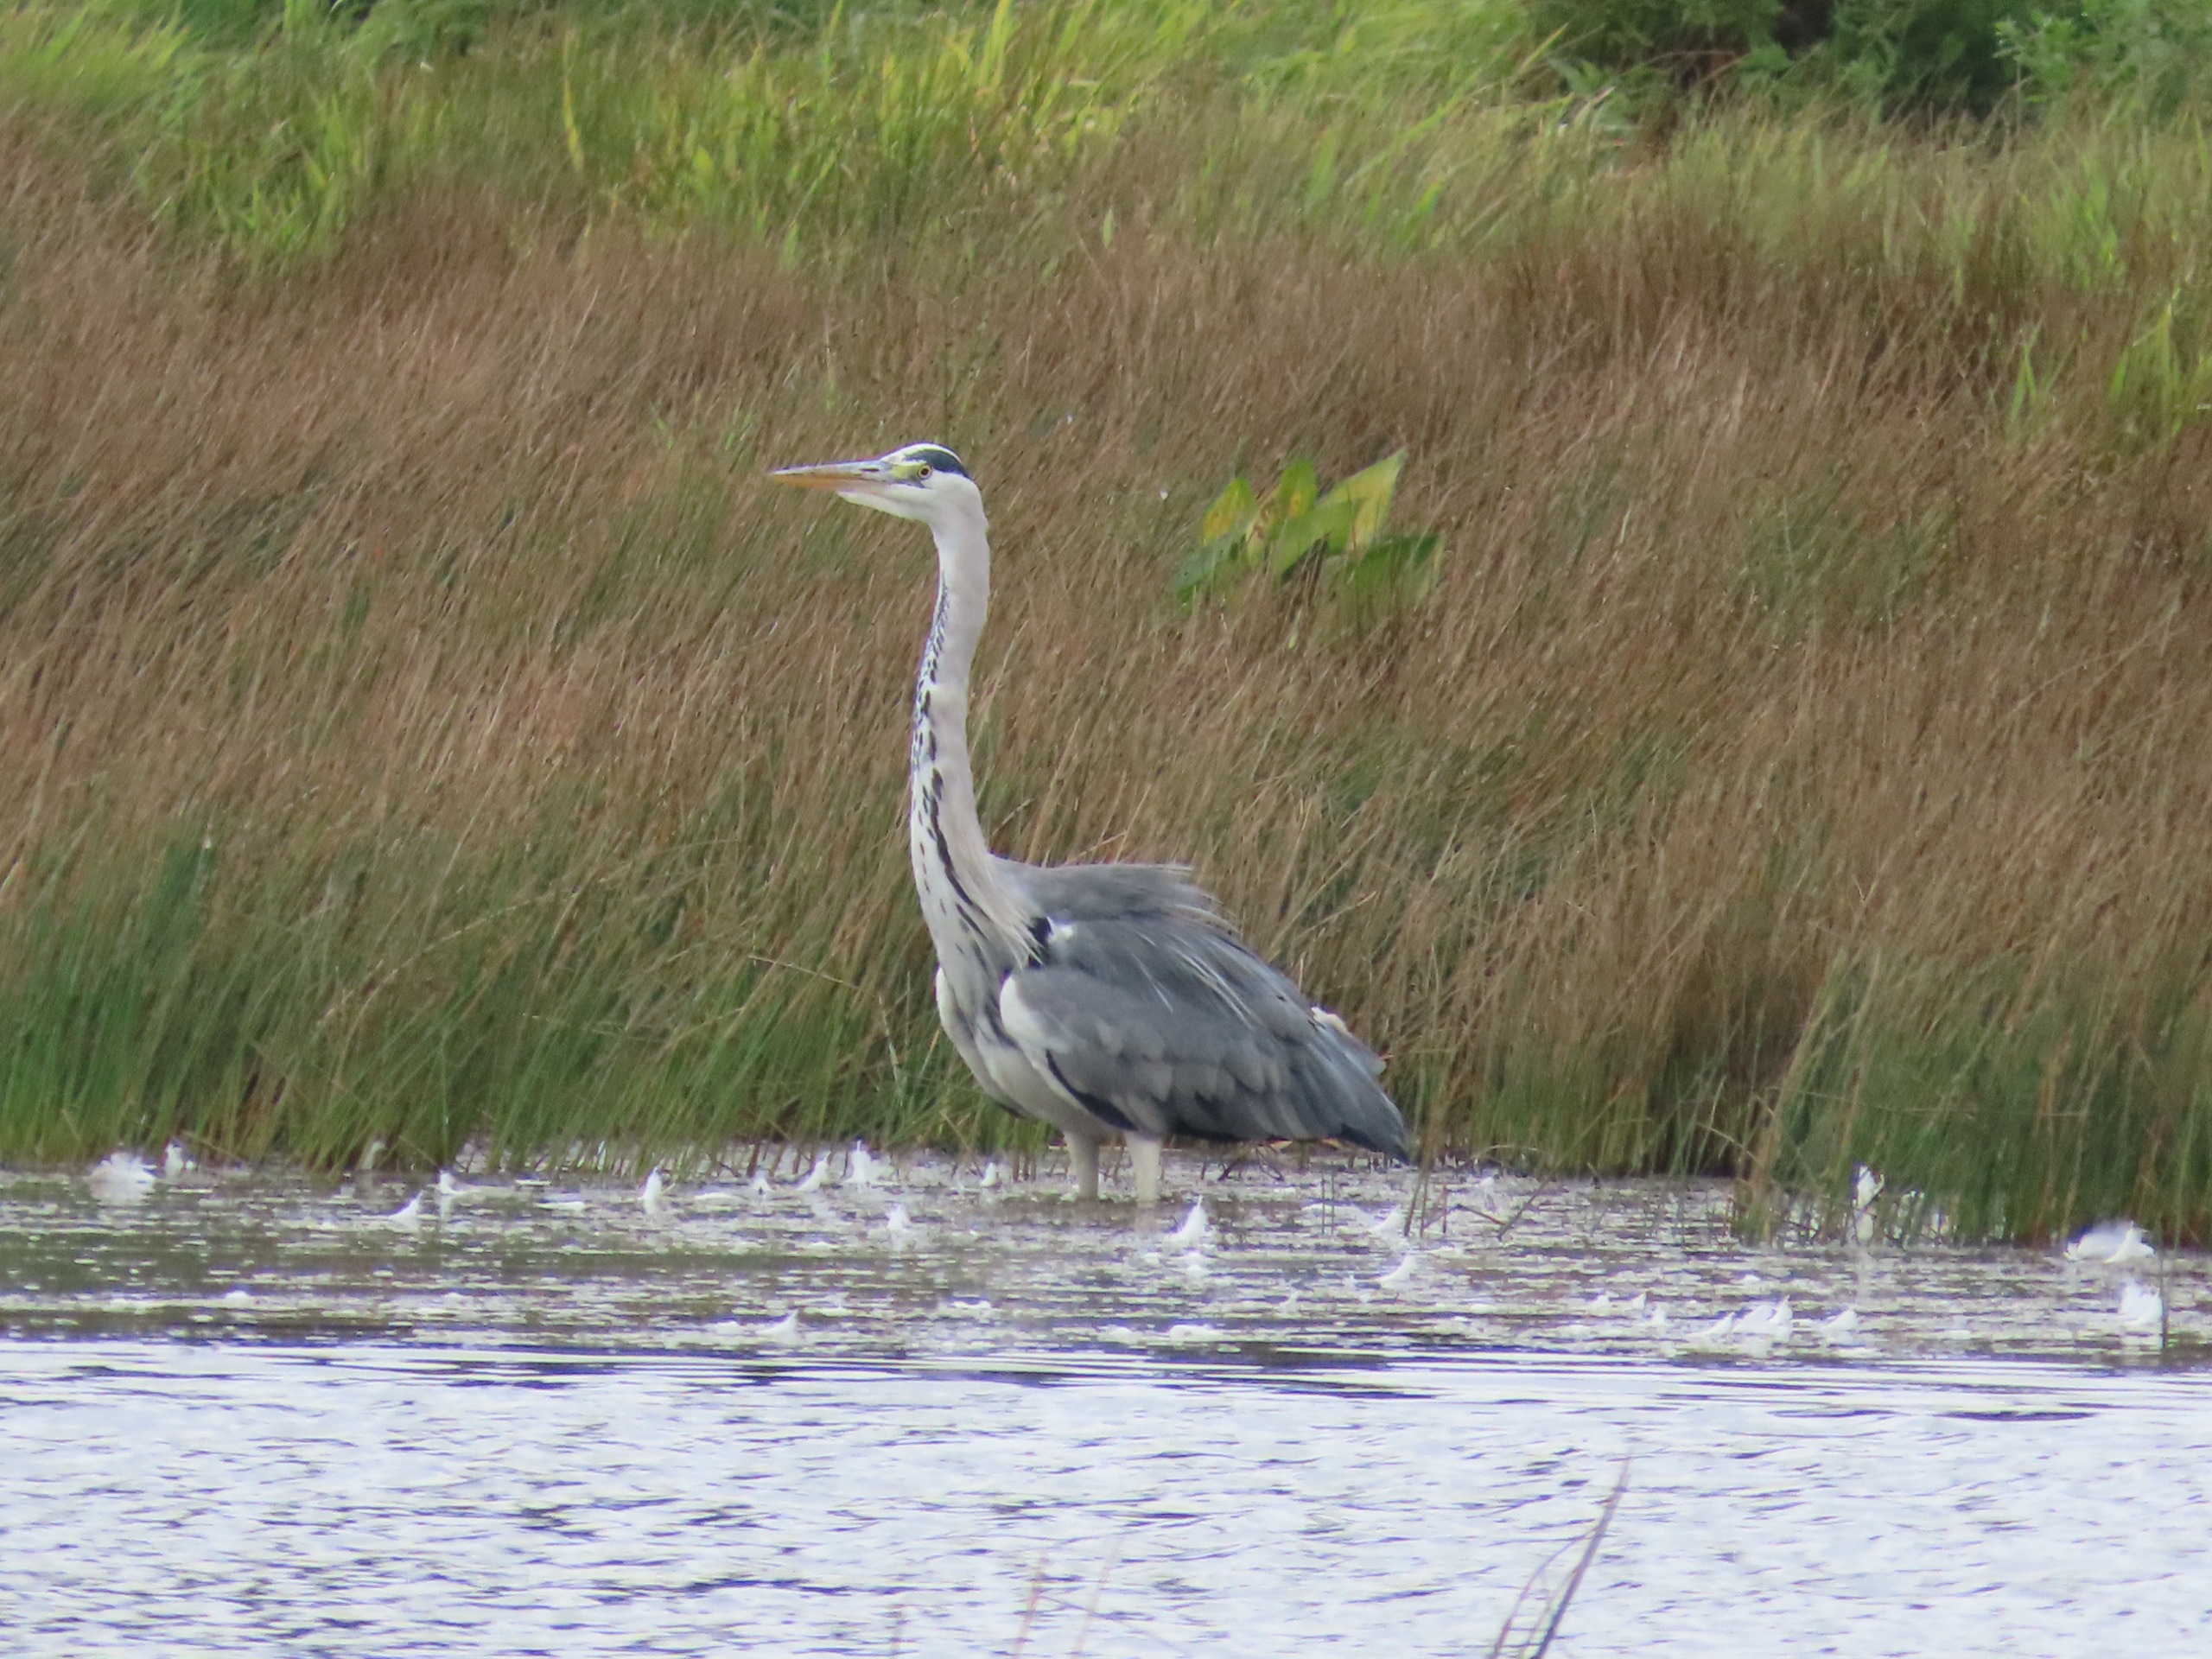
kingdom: Animalia
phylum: Chordata
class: Aves
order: Pelecaniformes
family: Ardeidae
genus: Ardea
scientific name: Ardea cinerea
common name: Fiskehejre
